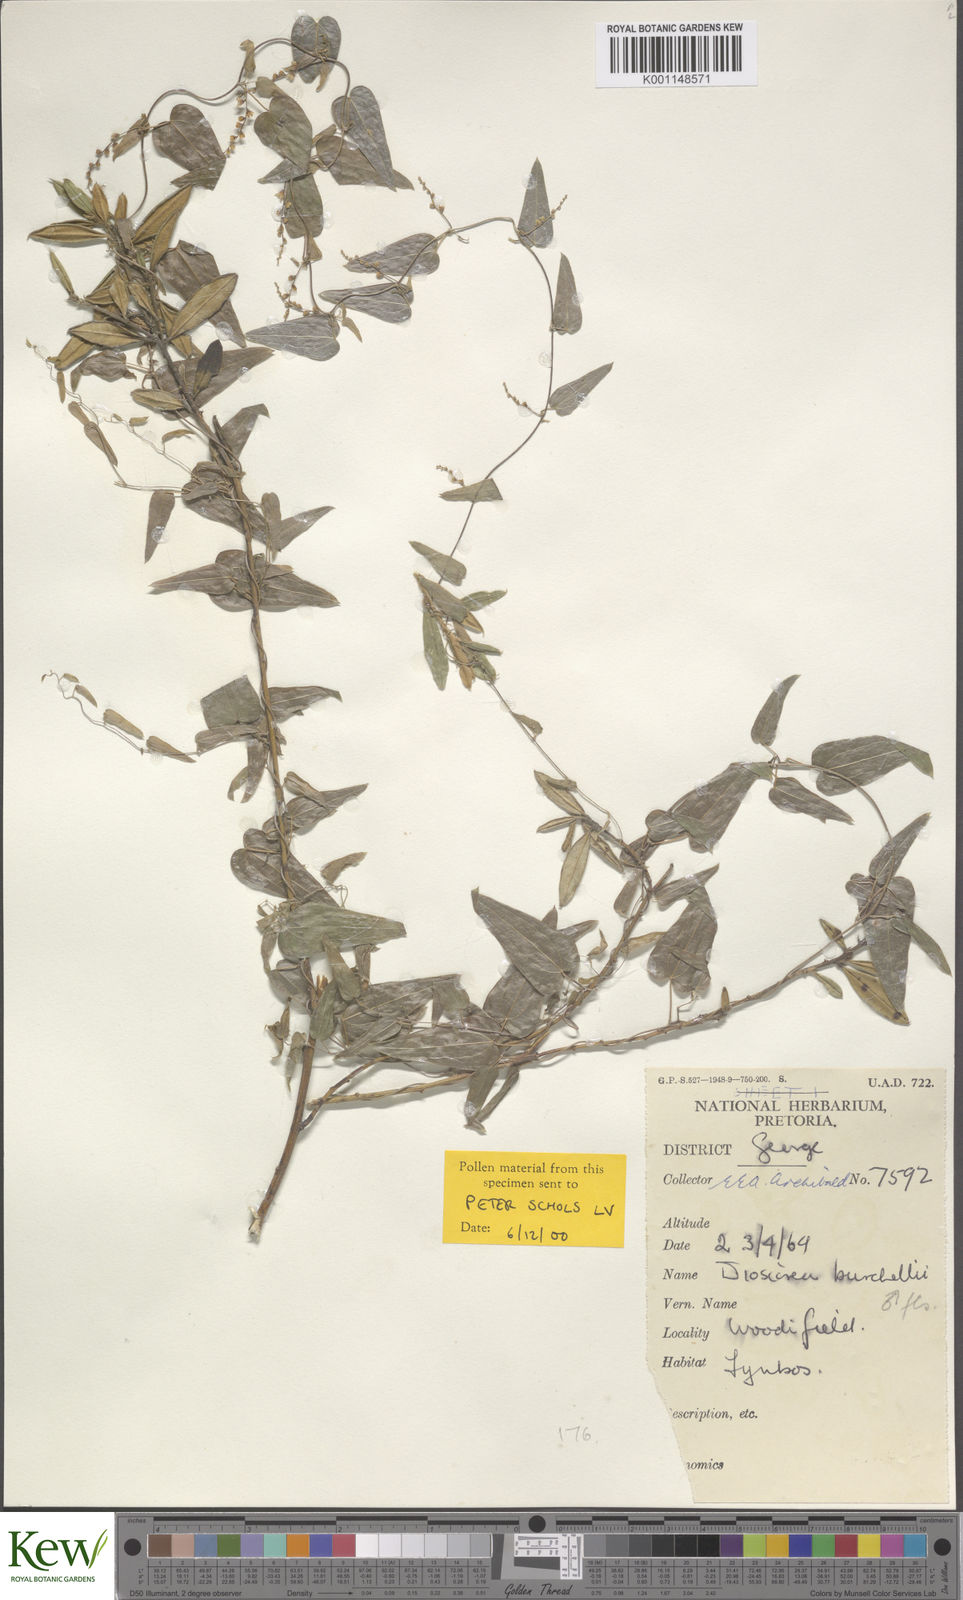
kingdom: Plantae
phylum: Tracheophyta
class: Liliopsida
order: Dioscoreales
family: Dioscoreaceae
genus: Dioscorea
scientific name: Dioscorea burchellii
